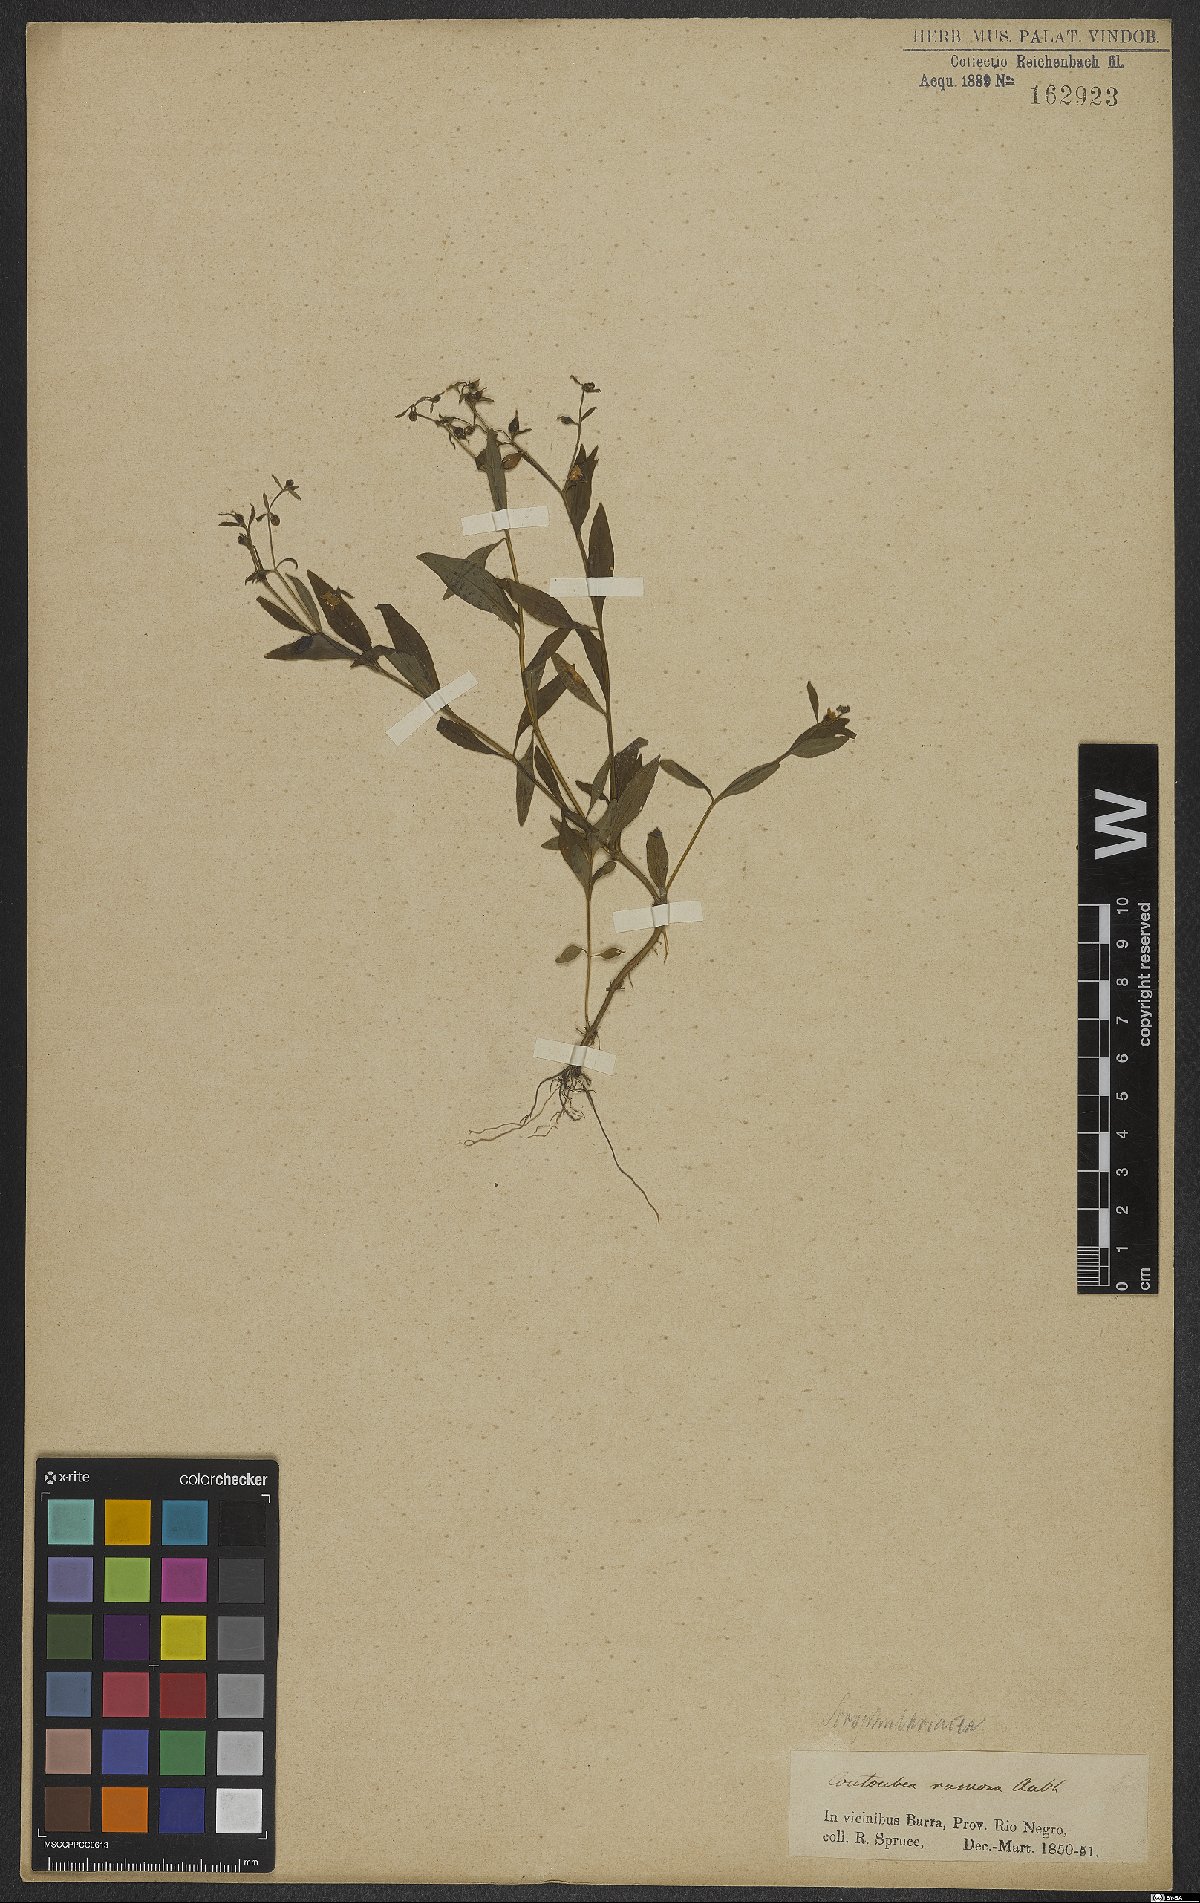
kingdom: Plantae
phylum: Tracheophyta
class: Magnoliopsida
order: Lamiales
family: Scrophulariaceae
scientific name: Scrophulariaceae
